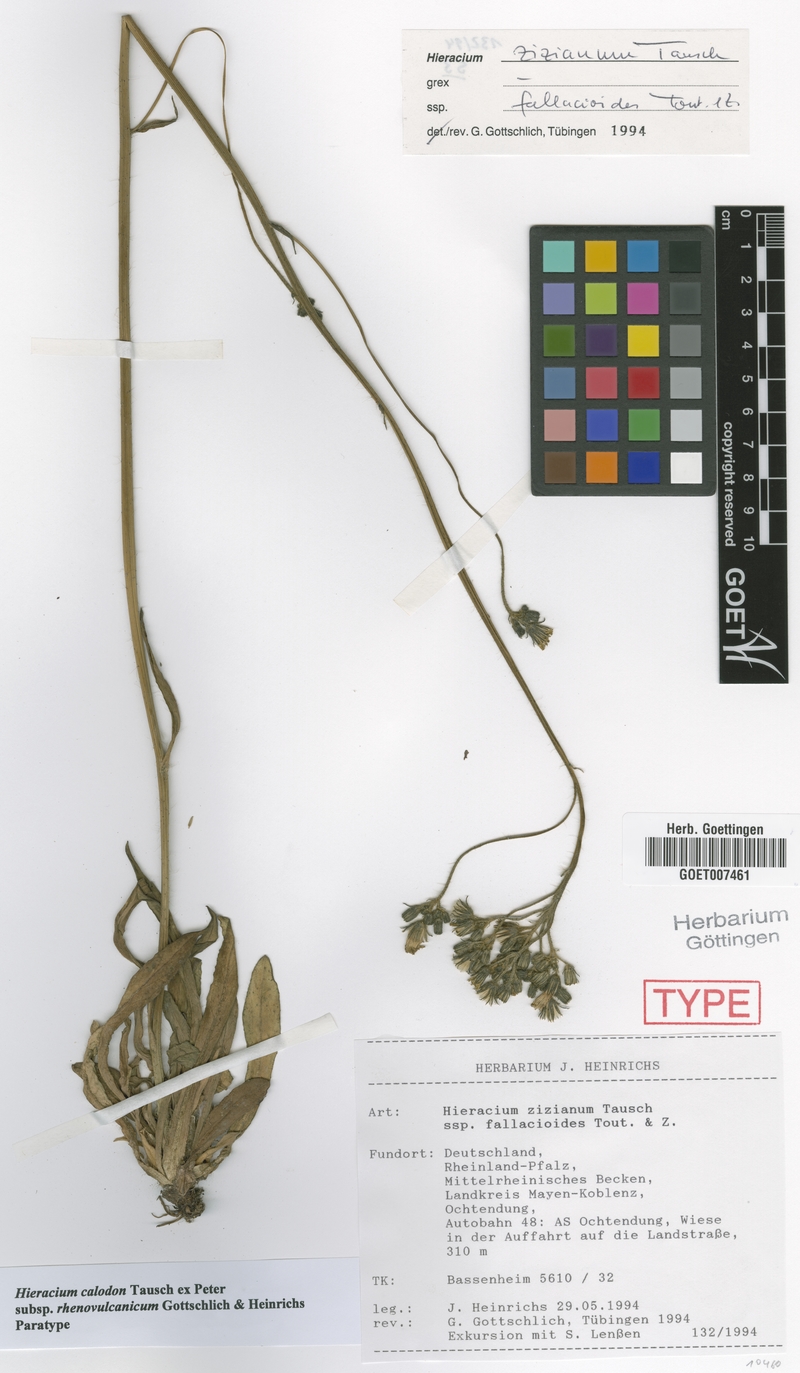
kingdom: Plantae
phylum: Tracheophyta
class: Magnoliopsida
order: Asterales
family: Asteraceae
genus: Pilosella
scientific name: Pilosella calodon
